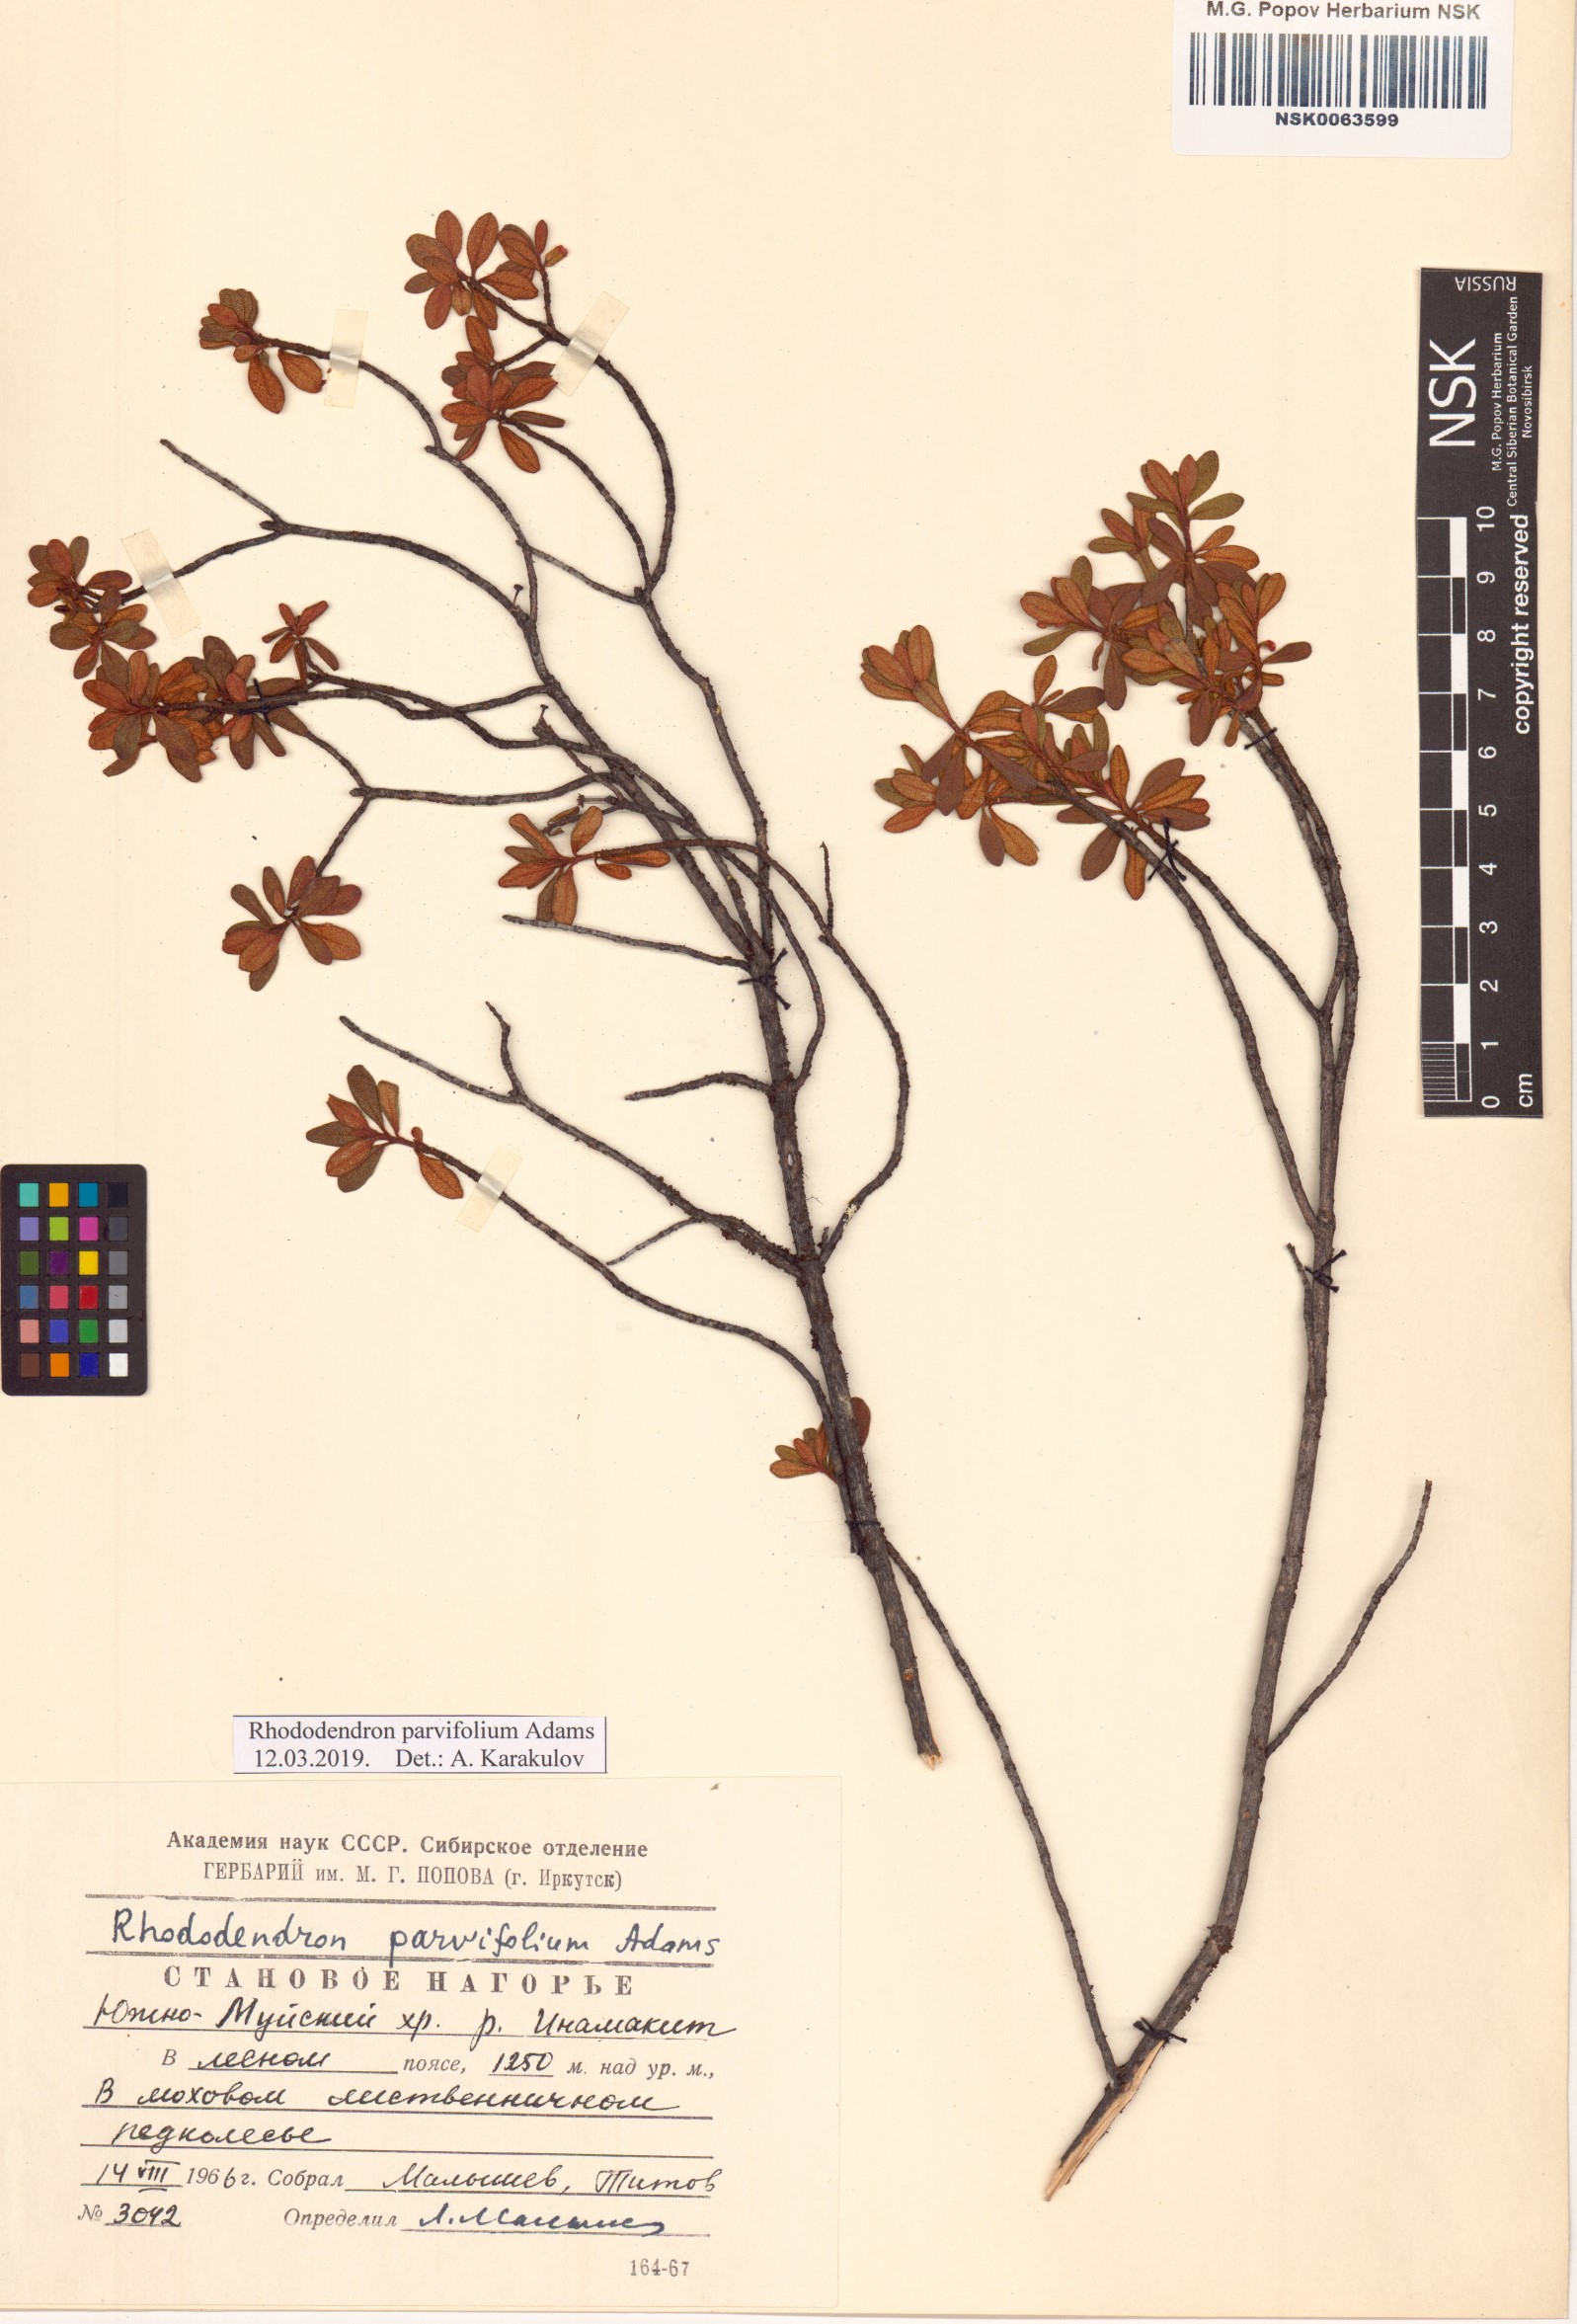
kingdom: Plantae
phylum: Tracheophyta
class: Magnoliopsida
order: Ericales
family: Ericaceae
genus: Rhododendron
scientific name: Rhododendron parvifolium
